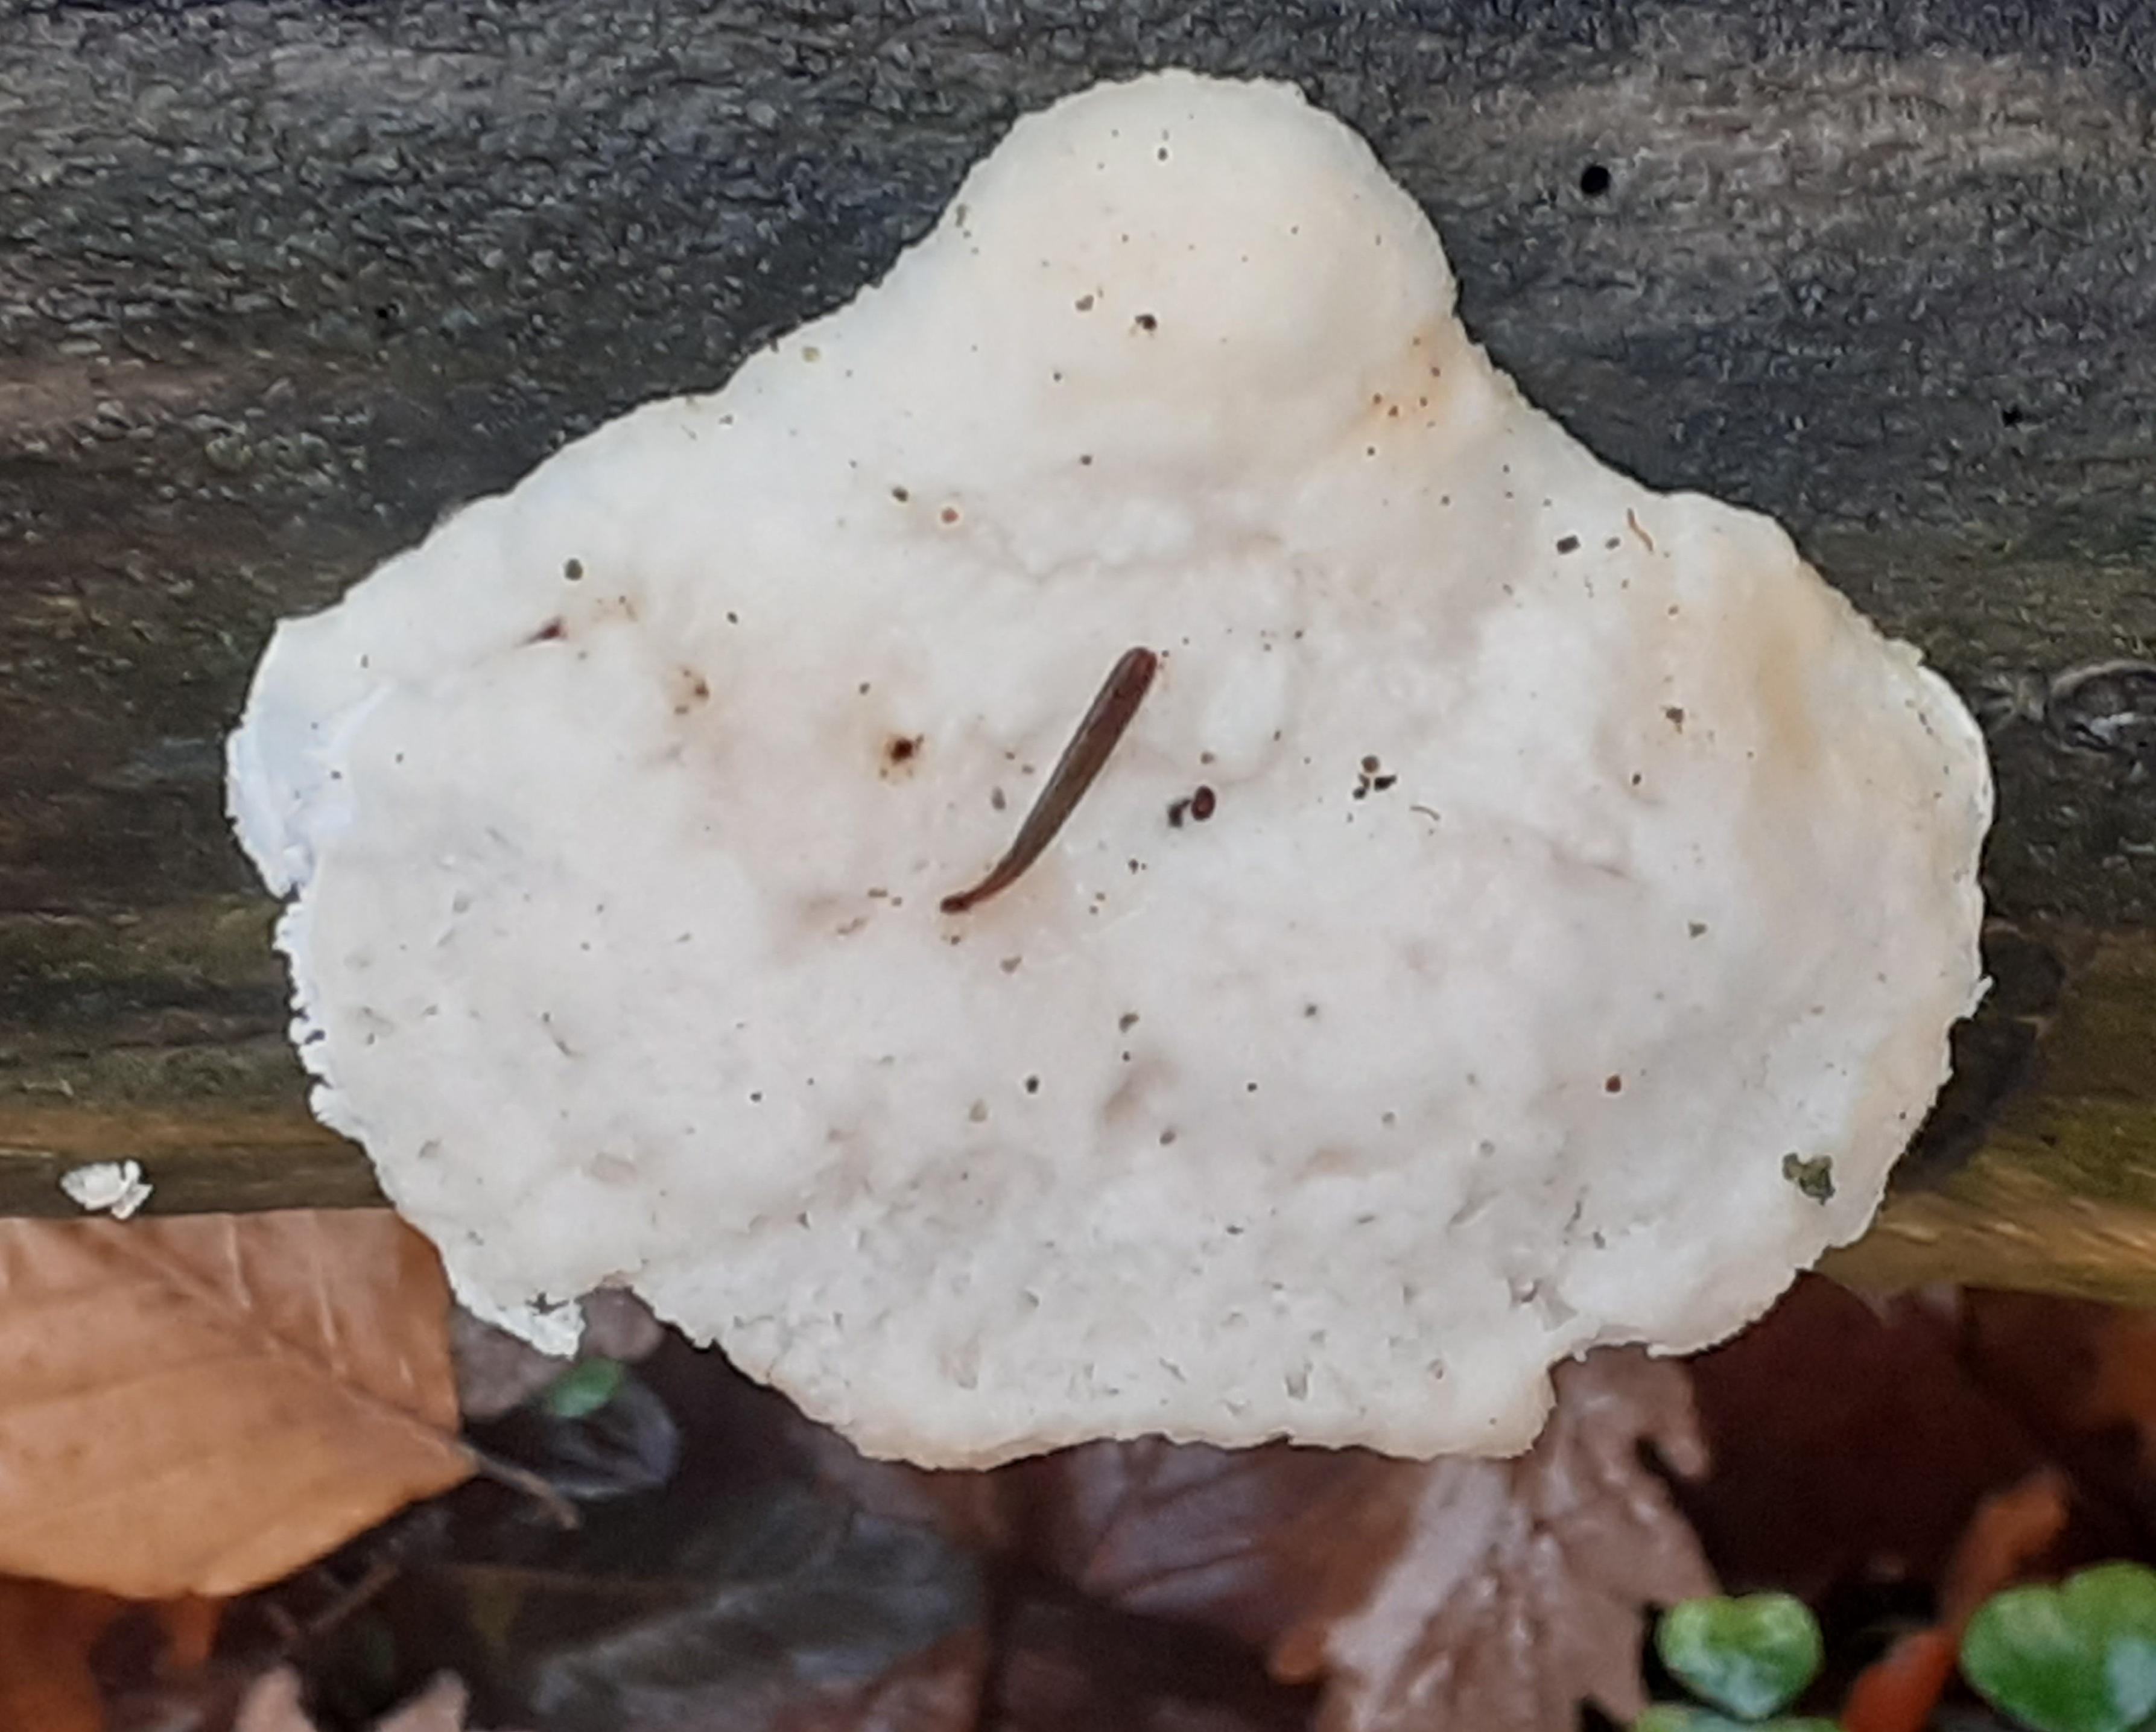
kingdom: Fungi
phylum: Basidiomycota
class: Agaricomycetes
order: Polyporales
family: Incrustoporiaceae
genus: Tyromyces
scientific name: Tyromyces lacteus
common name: mælkehvid kødporesvamp
